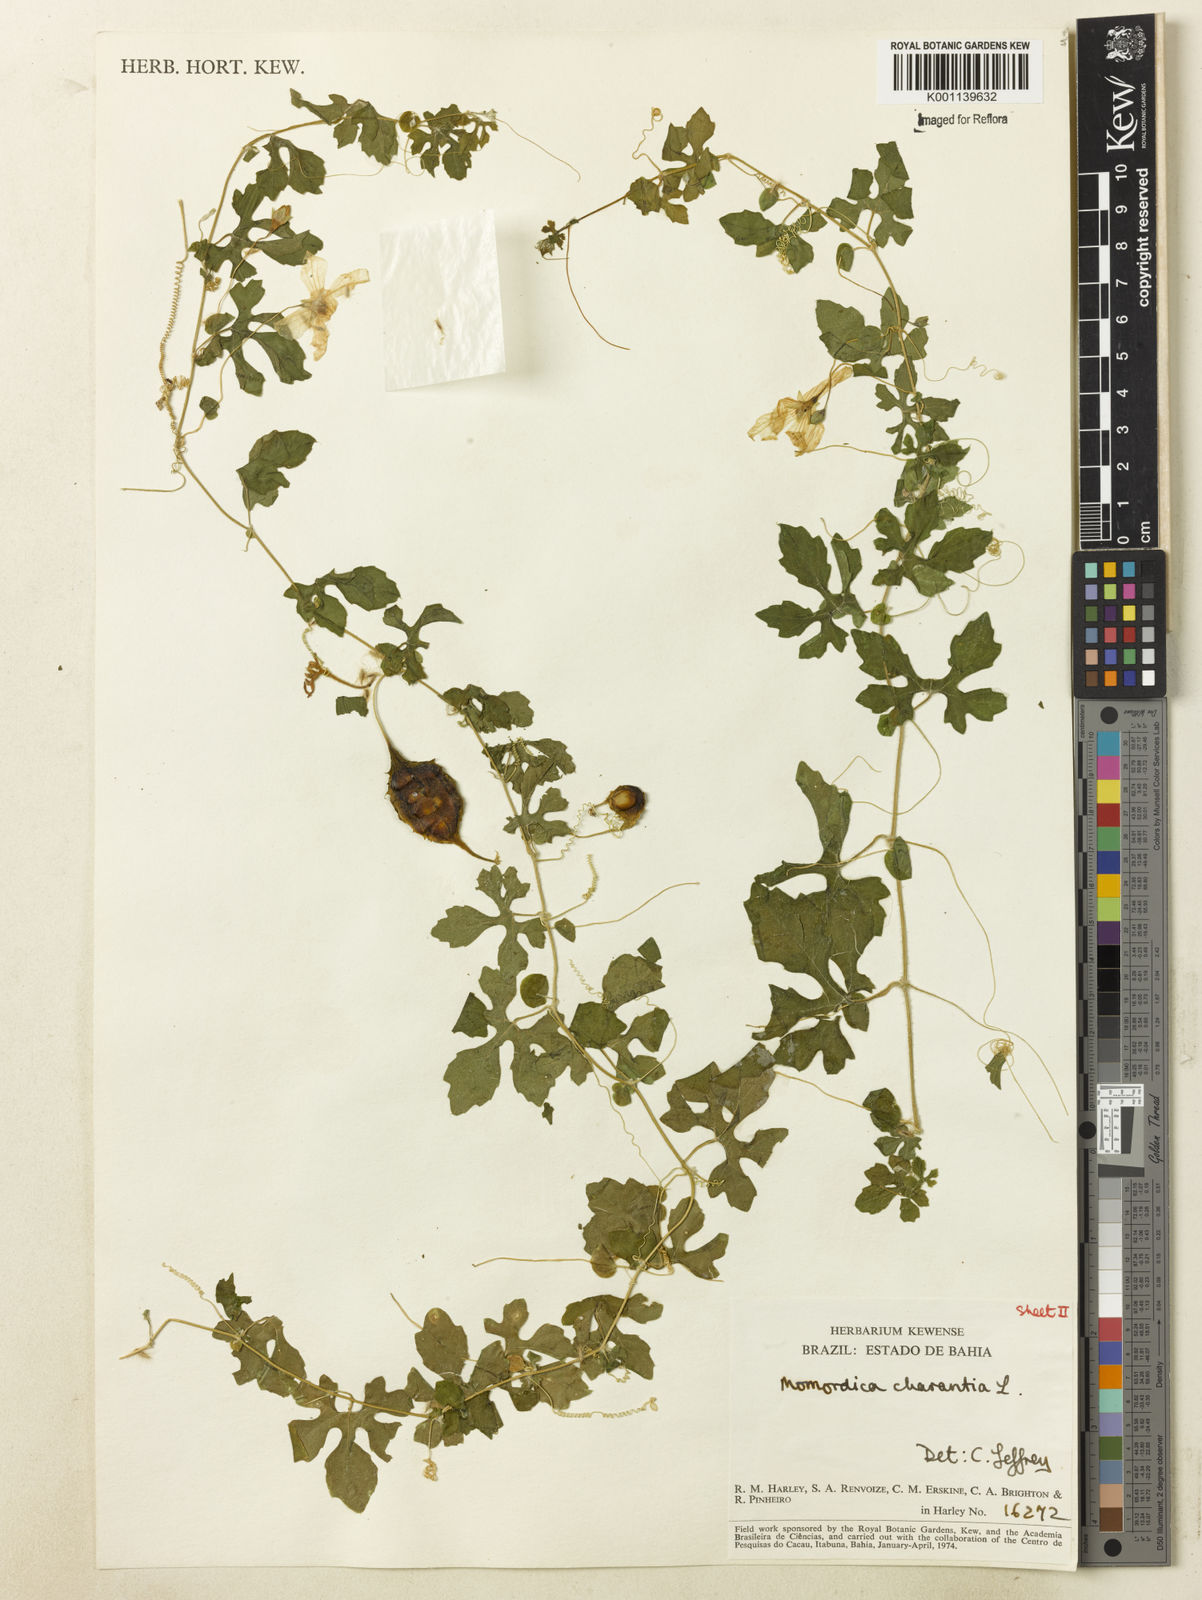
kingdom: Plantae
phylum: Tracheophyta
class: Magnoliopsida
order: Cucurbitales
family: Cucurbitaceae
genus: Momordica
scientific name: Momordica charantia
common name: Balsampear
